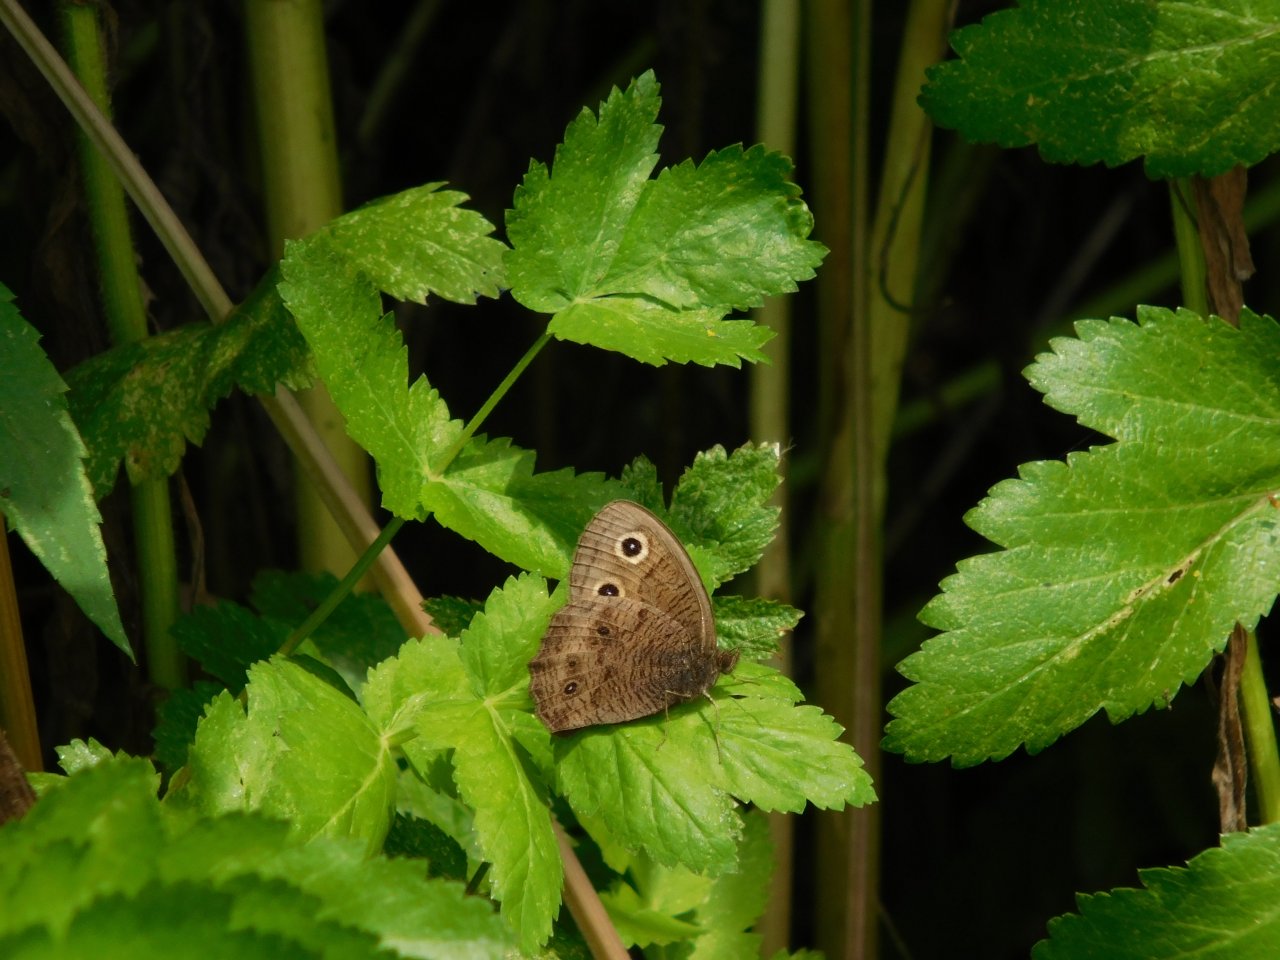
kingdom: Animalia
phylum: Arthropoda
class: Insecta
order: Lepidoptera
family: Nymphalidae
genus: Cercyonis
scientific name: Cercyonis pegala
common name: Common Wood-Nymph
